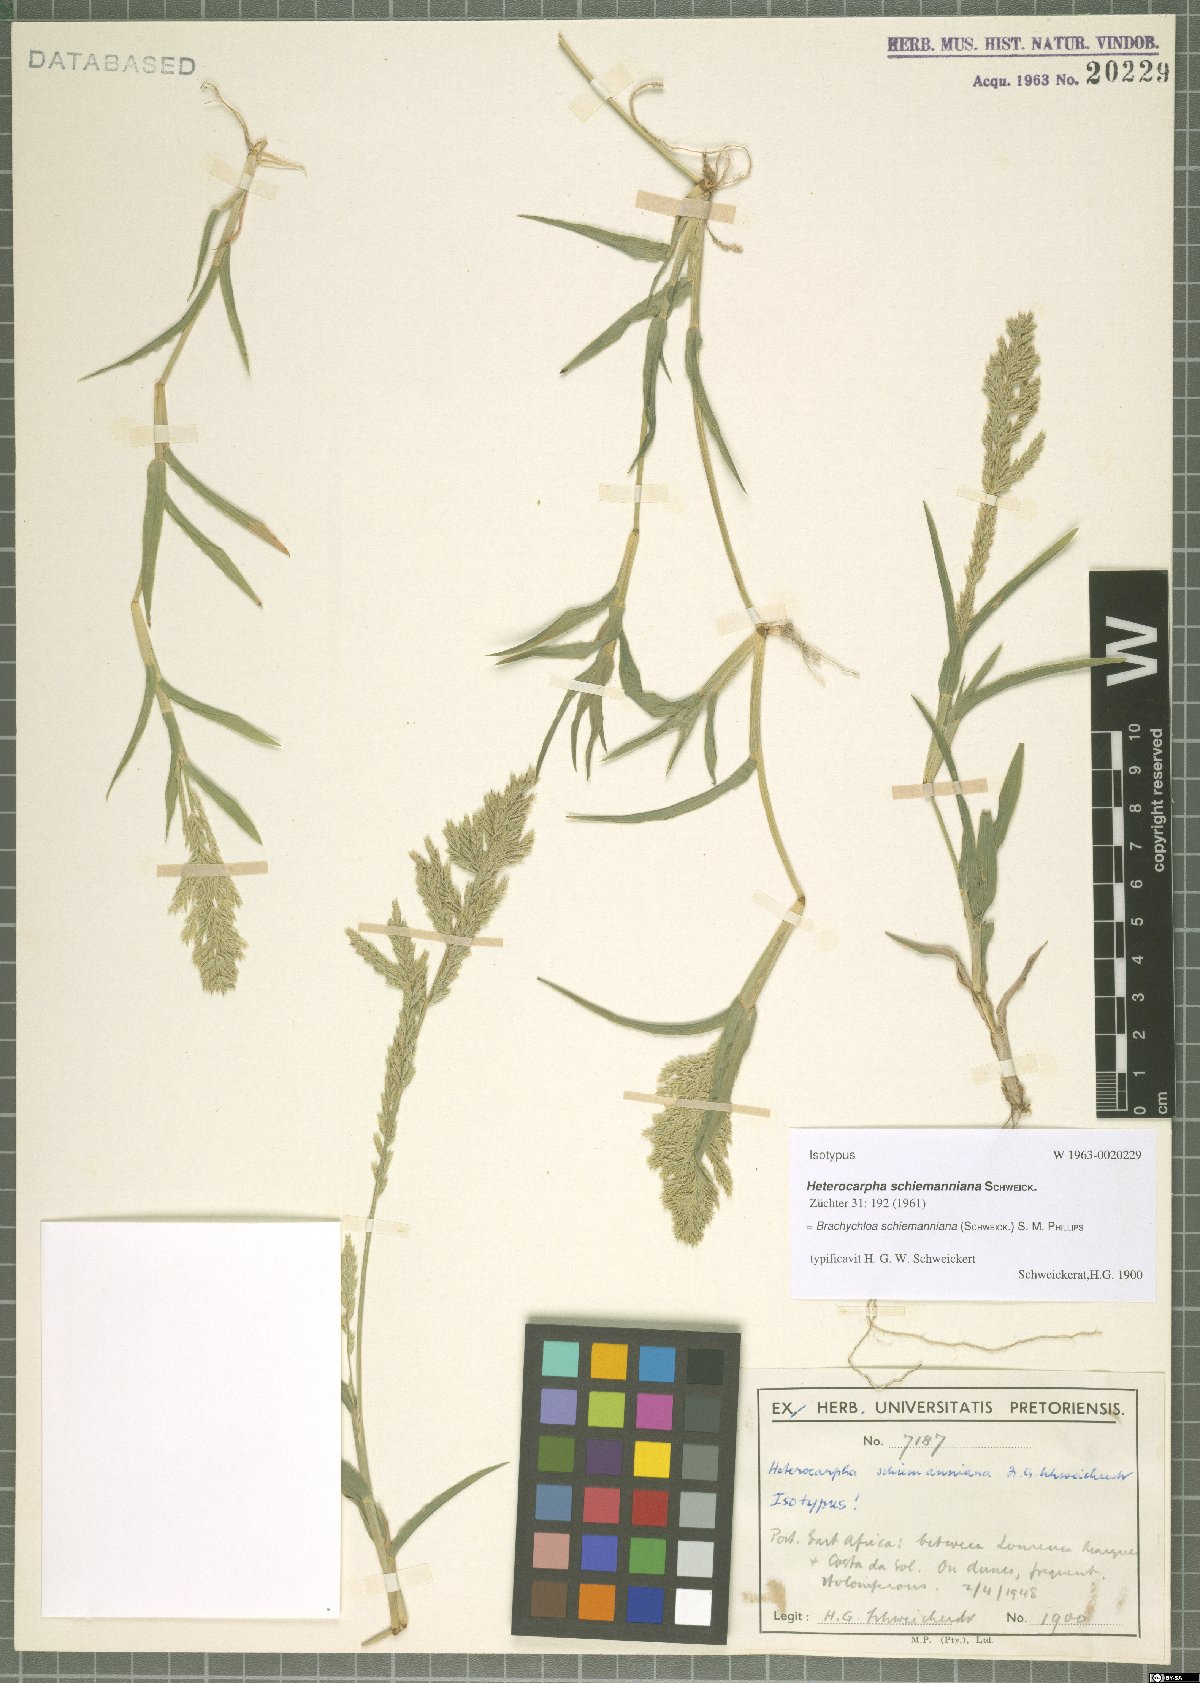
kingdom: Plantae
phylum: Tracheophyta
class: Liliopsida
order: Poales
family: Poaceae
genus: Brachychloa
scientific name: Brachychloa schiemanniana
